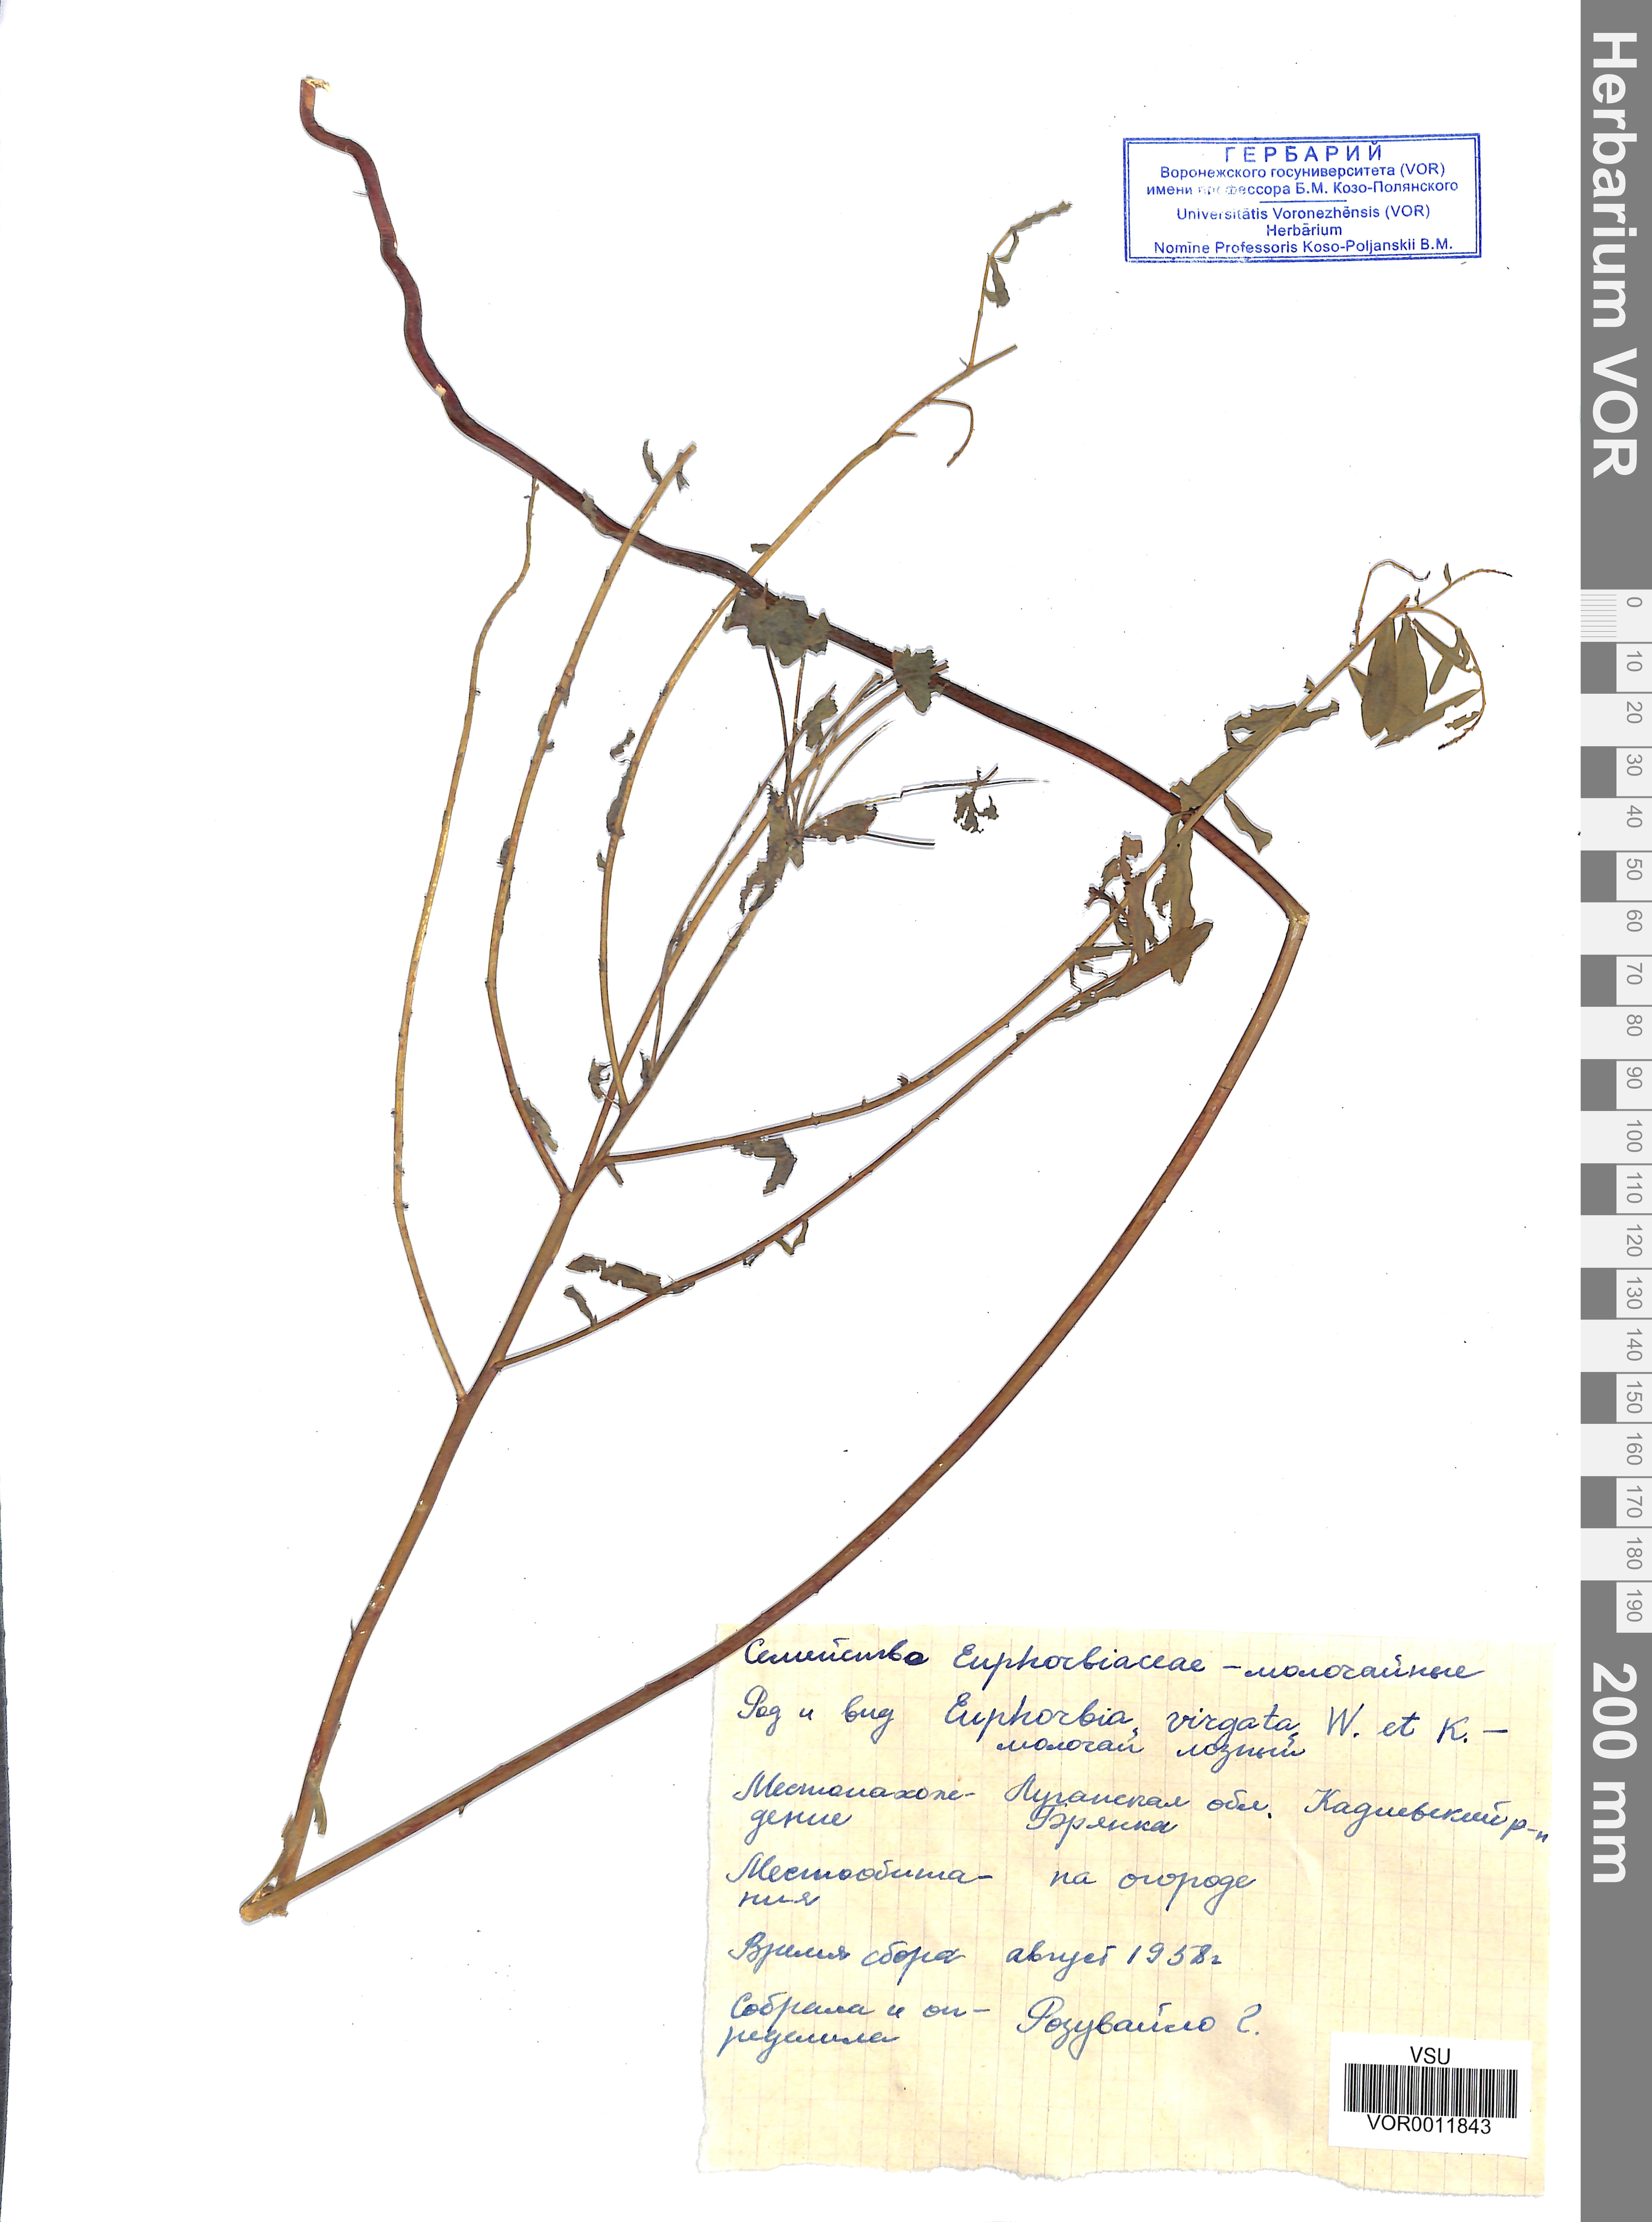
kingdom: Plantae
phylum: Tracheophyta
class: Magnoliopsida
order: Malpighiales
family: Euphorbiaceae
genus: Euphorbia
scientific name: Euphorbia virgata
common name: Leafy spurge
